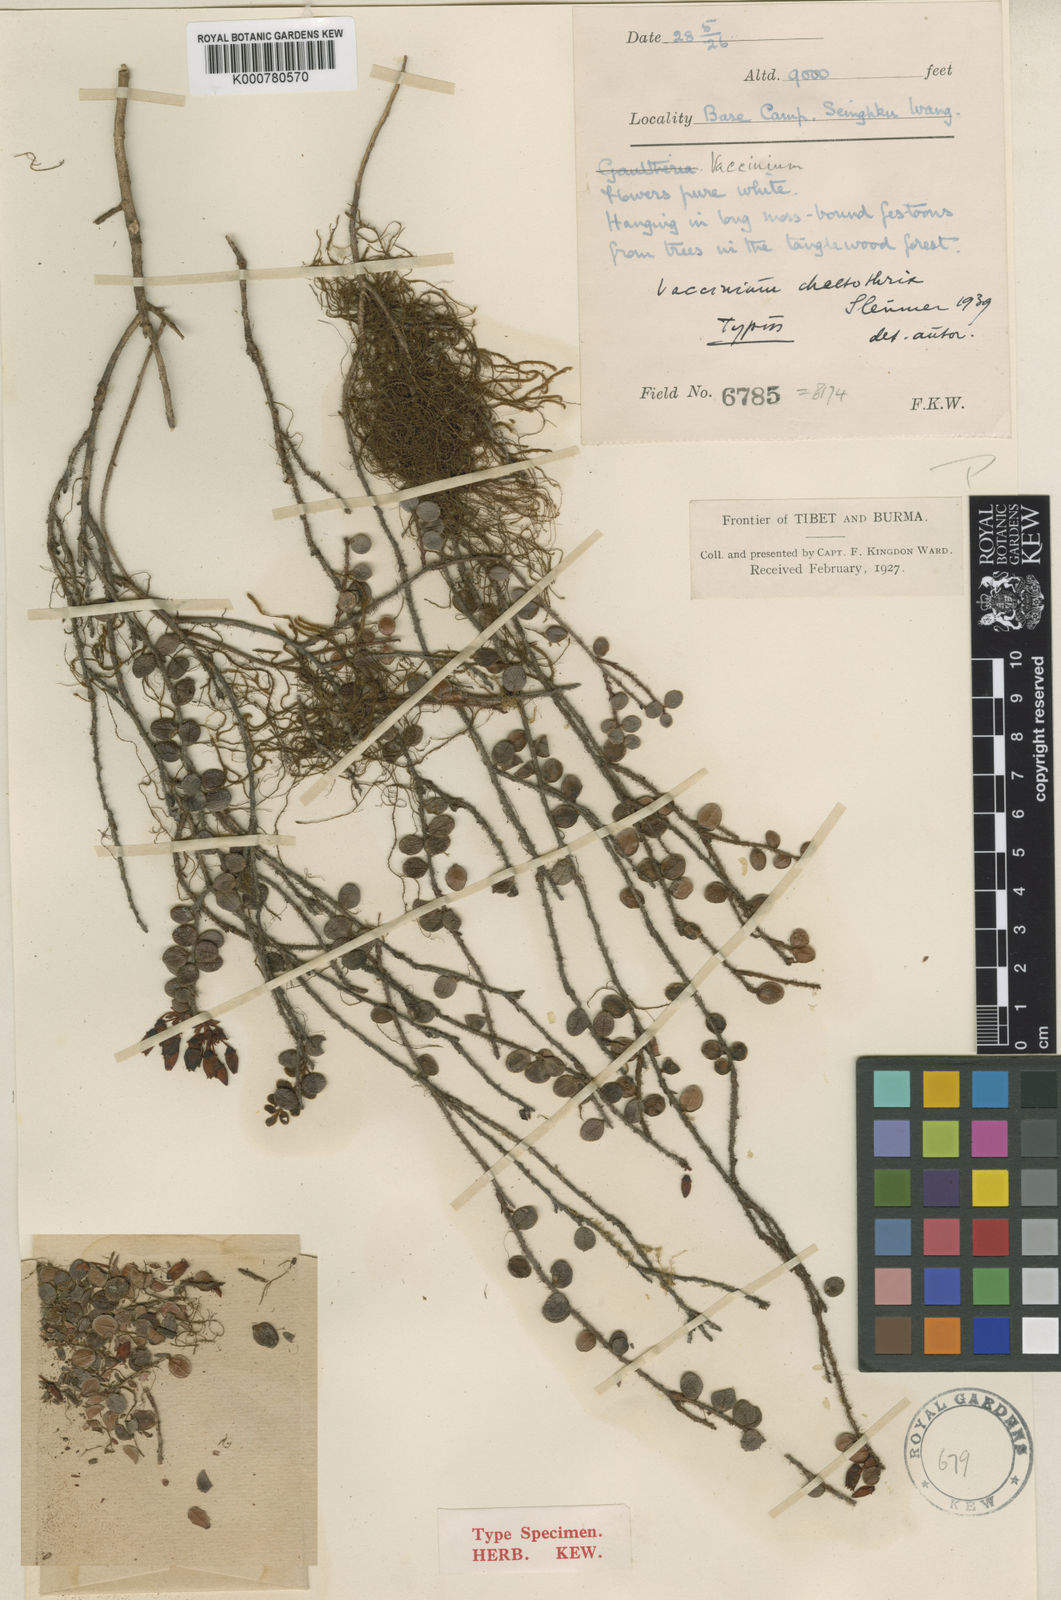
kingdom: Plantae
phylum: Tracheophyta
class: Magnoliopsida
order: Ericales
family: Ericaceae
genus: Vaccinium
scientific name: Vaccinium chaetothrix
